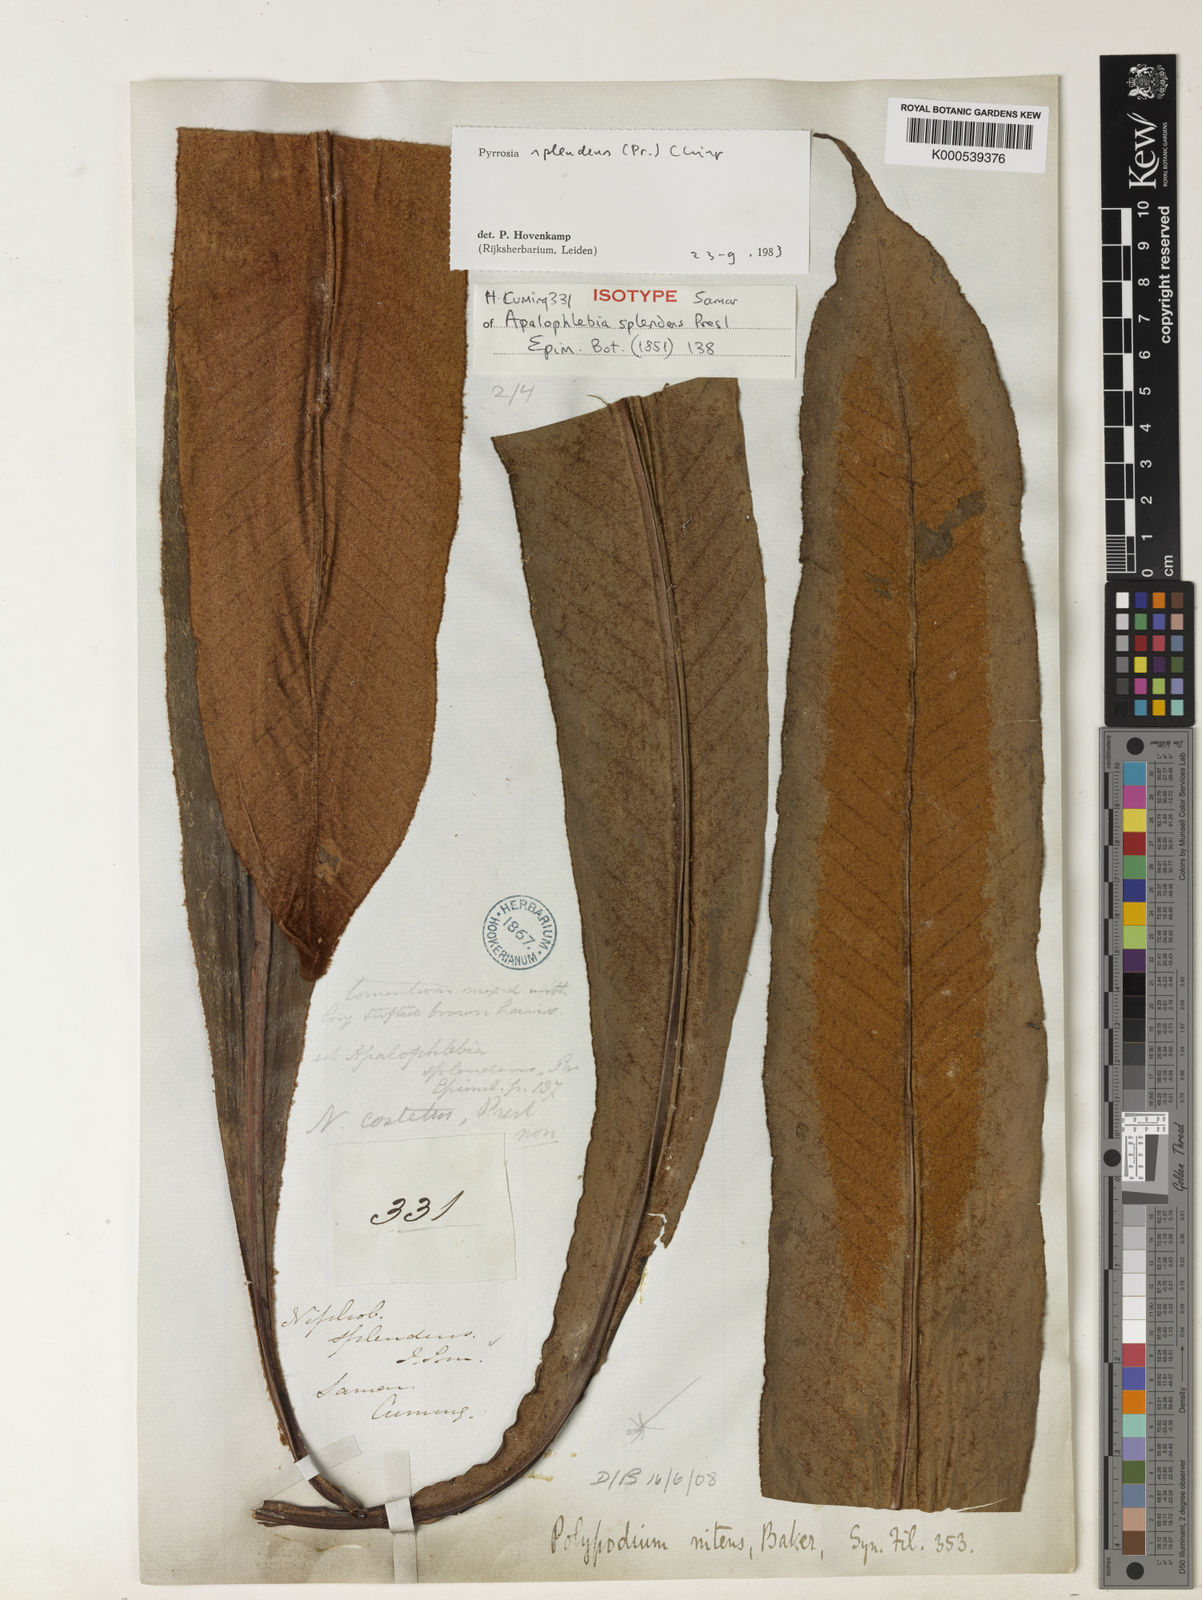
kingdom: Plantae
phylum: Tracheophyta
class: Polypodiopsida
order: Polypodiales
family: Polypodiaceae
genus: Pyrrosia
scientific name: Pyrrosia splendens
